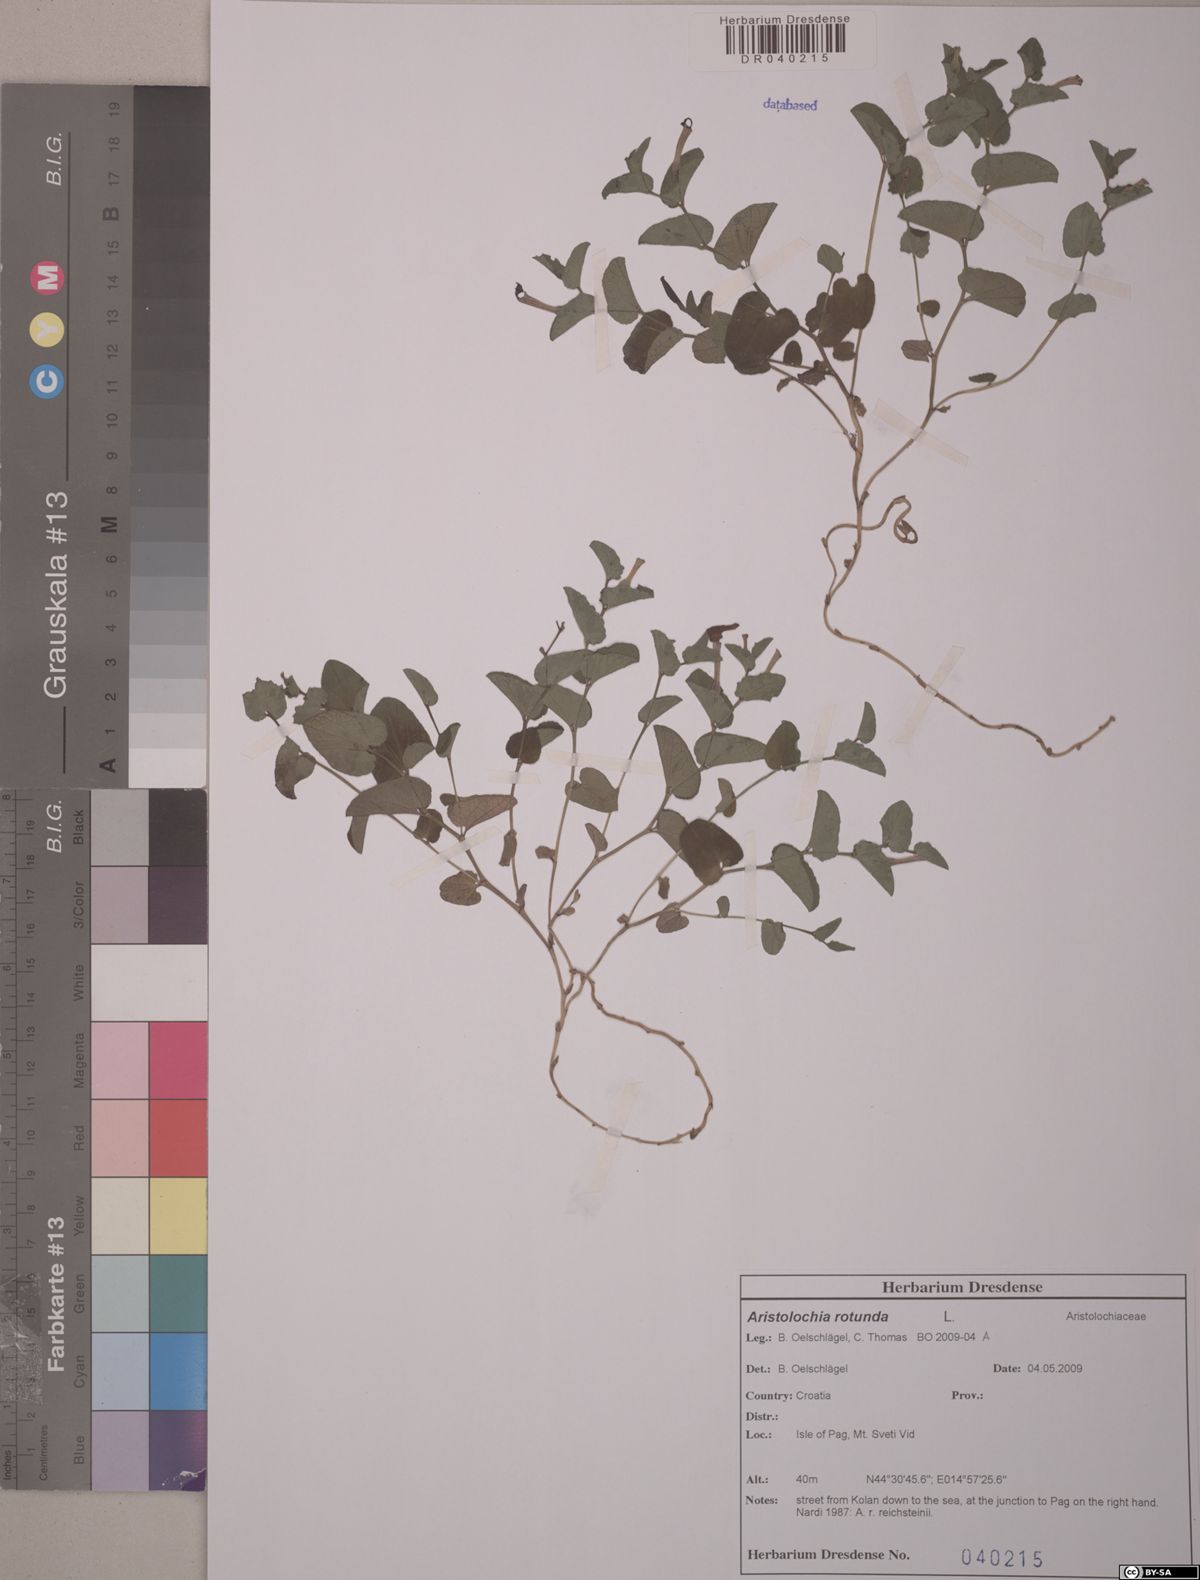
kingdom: Plantae
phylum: Tracheophyta
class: Magnoliopsida
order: Piperales
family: Aristolochiaceae
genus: Aristolochia
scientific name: Aristolochia rotunda
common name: Smearwort
